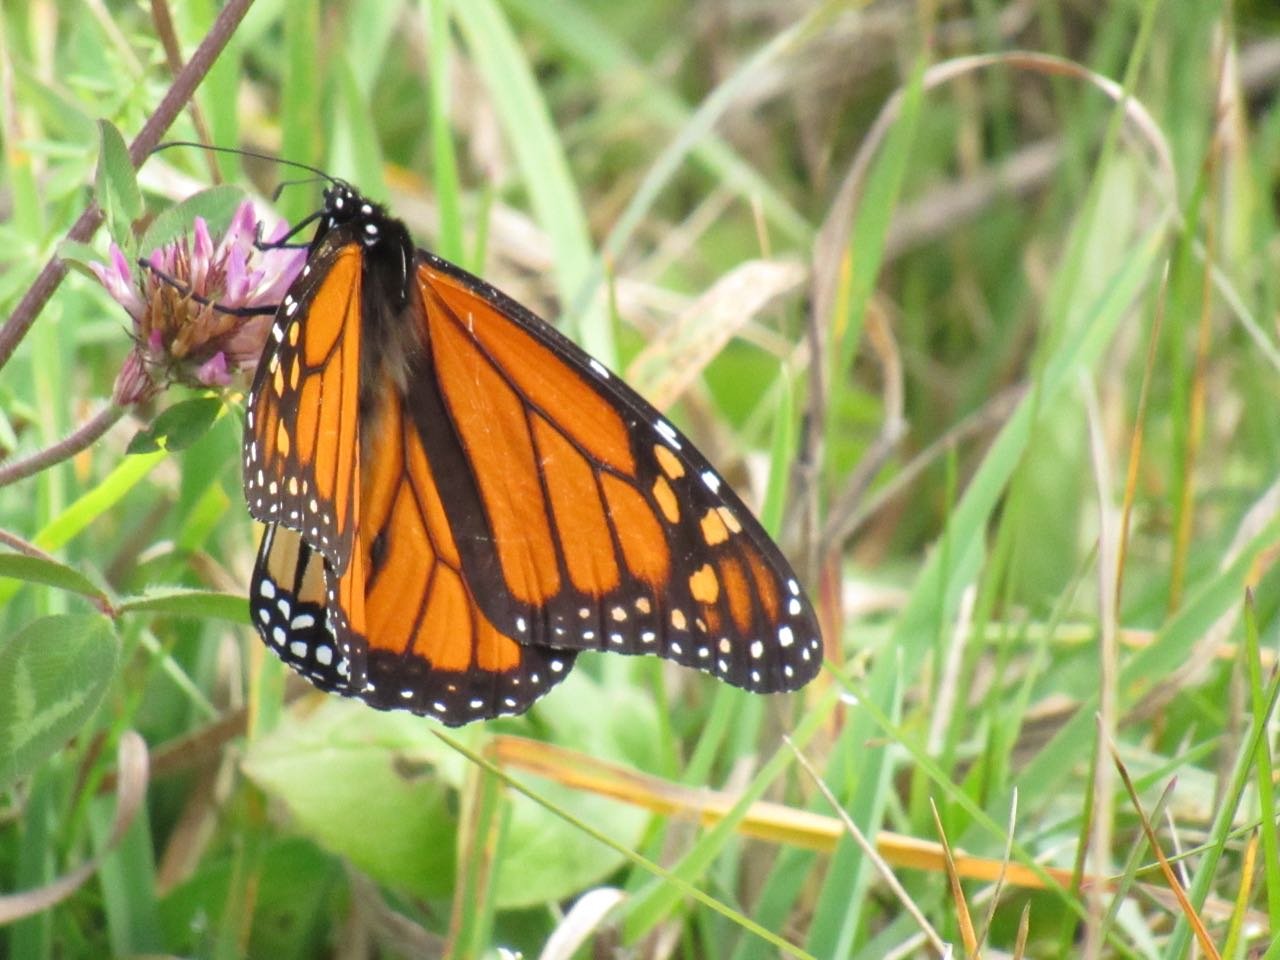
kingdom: Animalia
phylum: Arthropoda
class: Insecta
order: Lepidoptera
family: Nymphalidae
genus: Danaus
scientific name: Danaus plexippus
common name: Monarch
